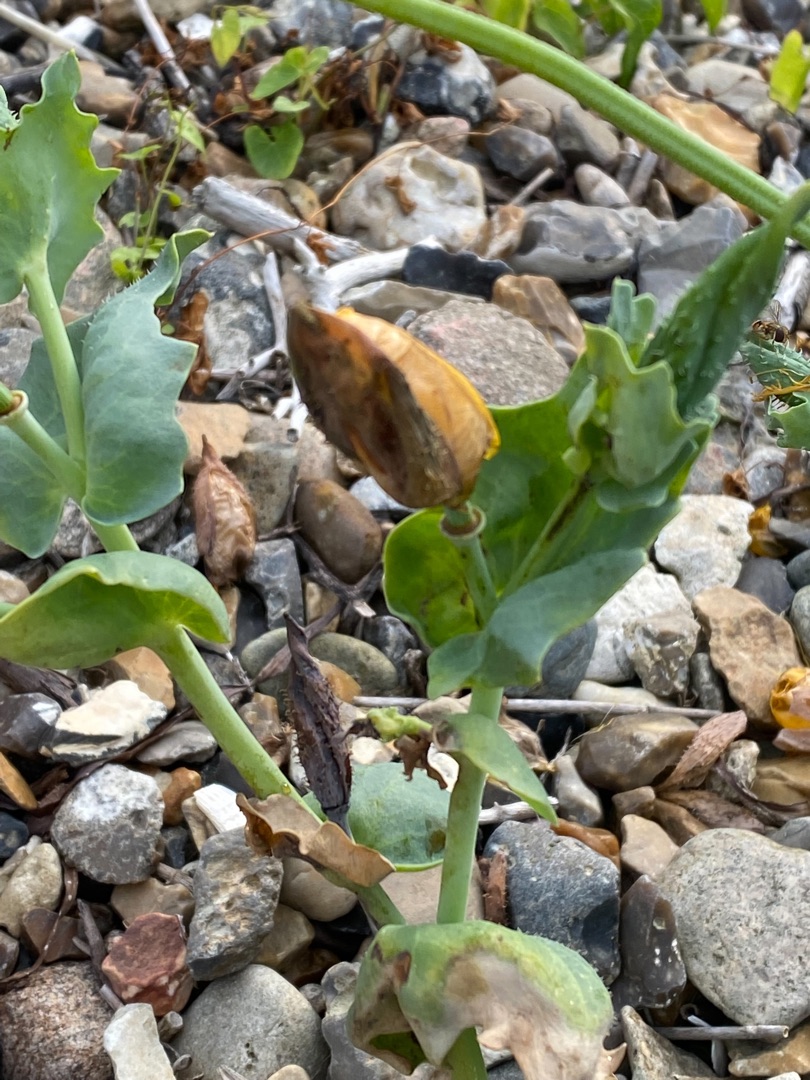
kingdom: Plantae
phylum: Tracheophyta
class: Magnoliopsida
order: Ranunculales
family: Papaveraceae
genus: Glaucium
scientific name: Glaucium flavum
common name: Hornskulpe
